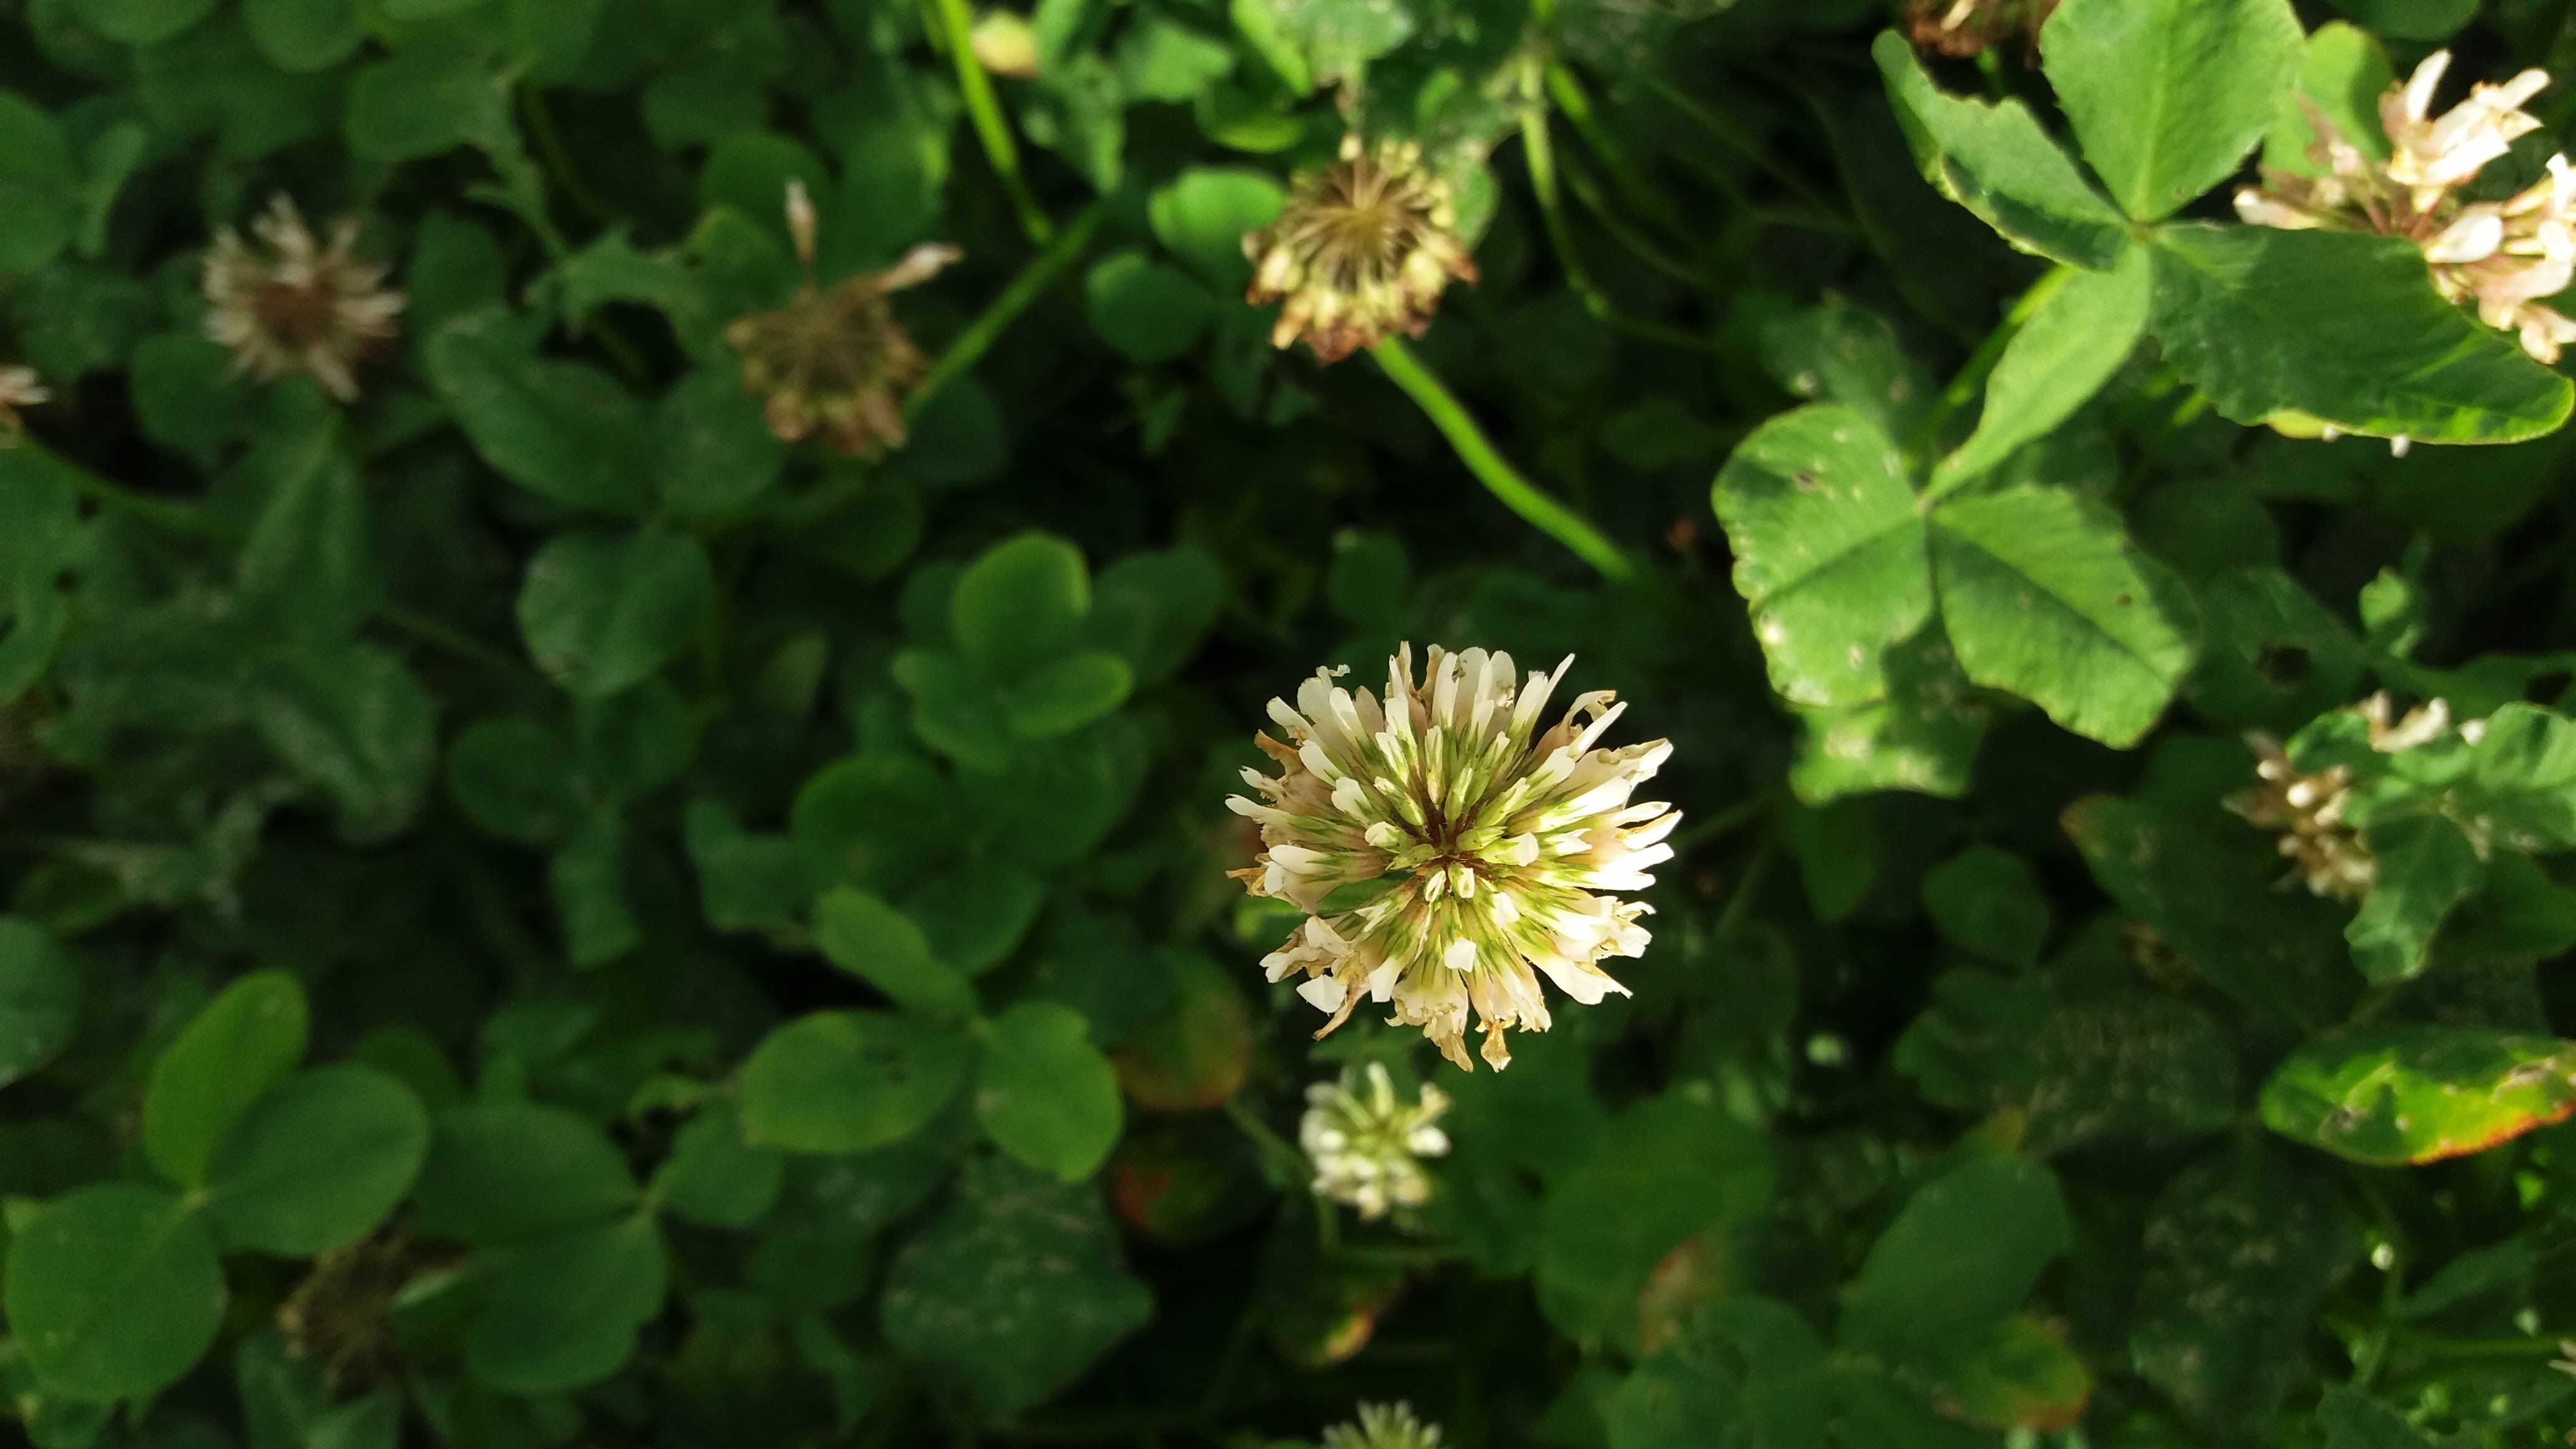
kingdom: Plantae
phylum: Tracheophyta
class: Magnoliopsida
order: Fabales
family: Fabaceae
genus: Trifolium
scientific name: Trifolium repens
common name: White clover
